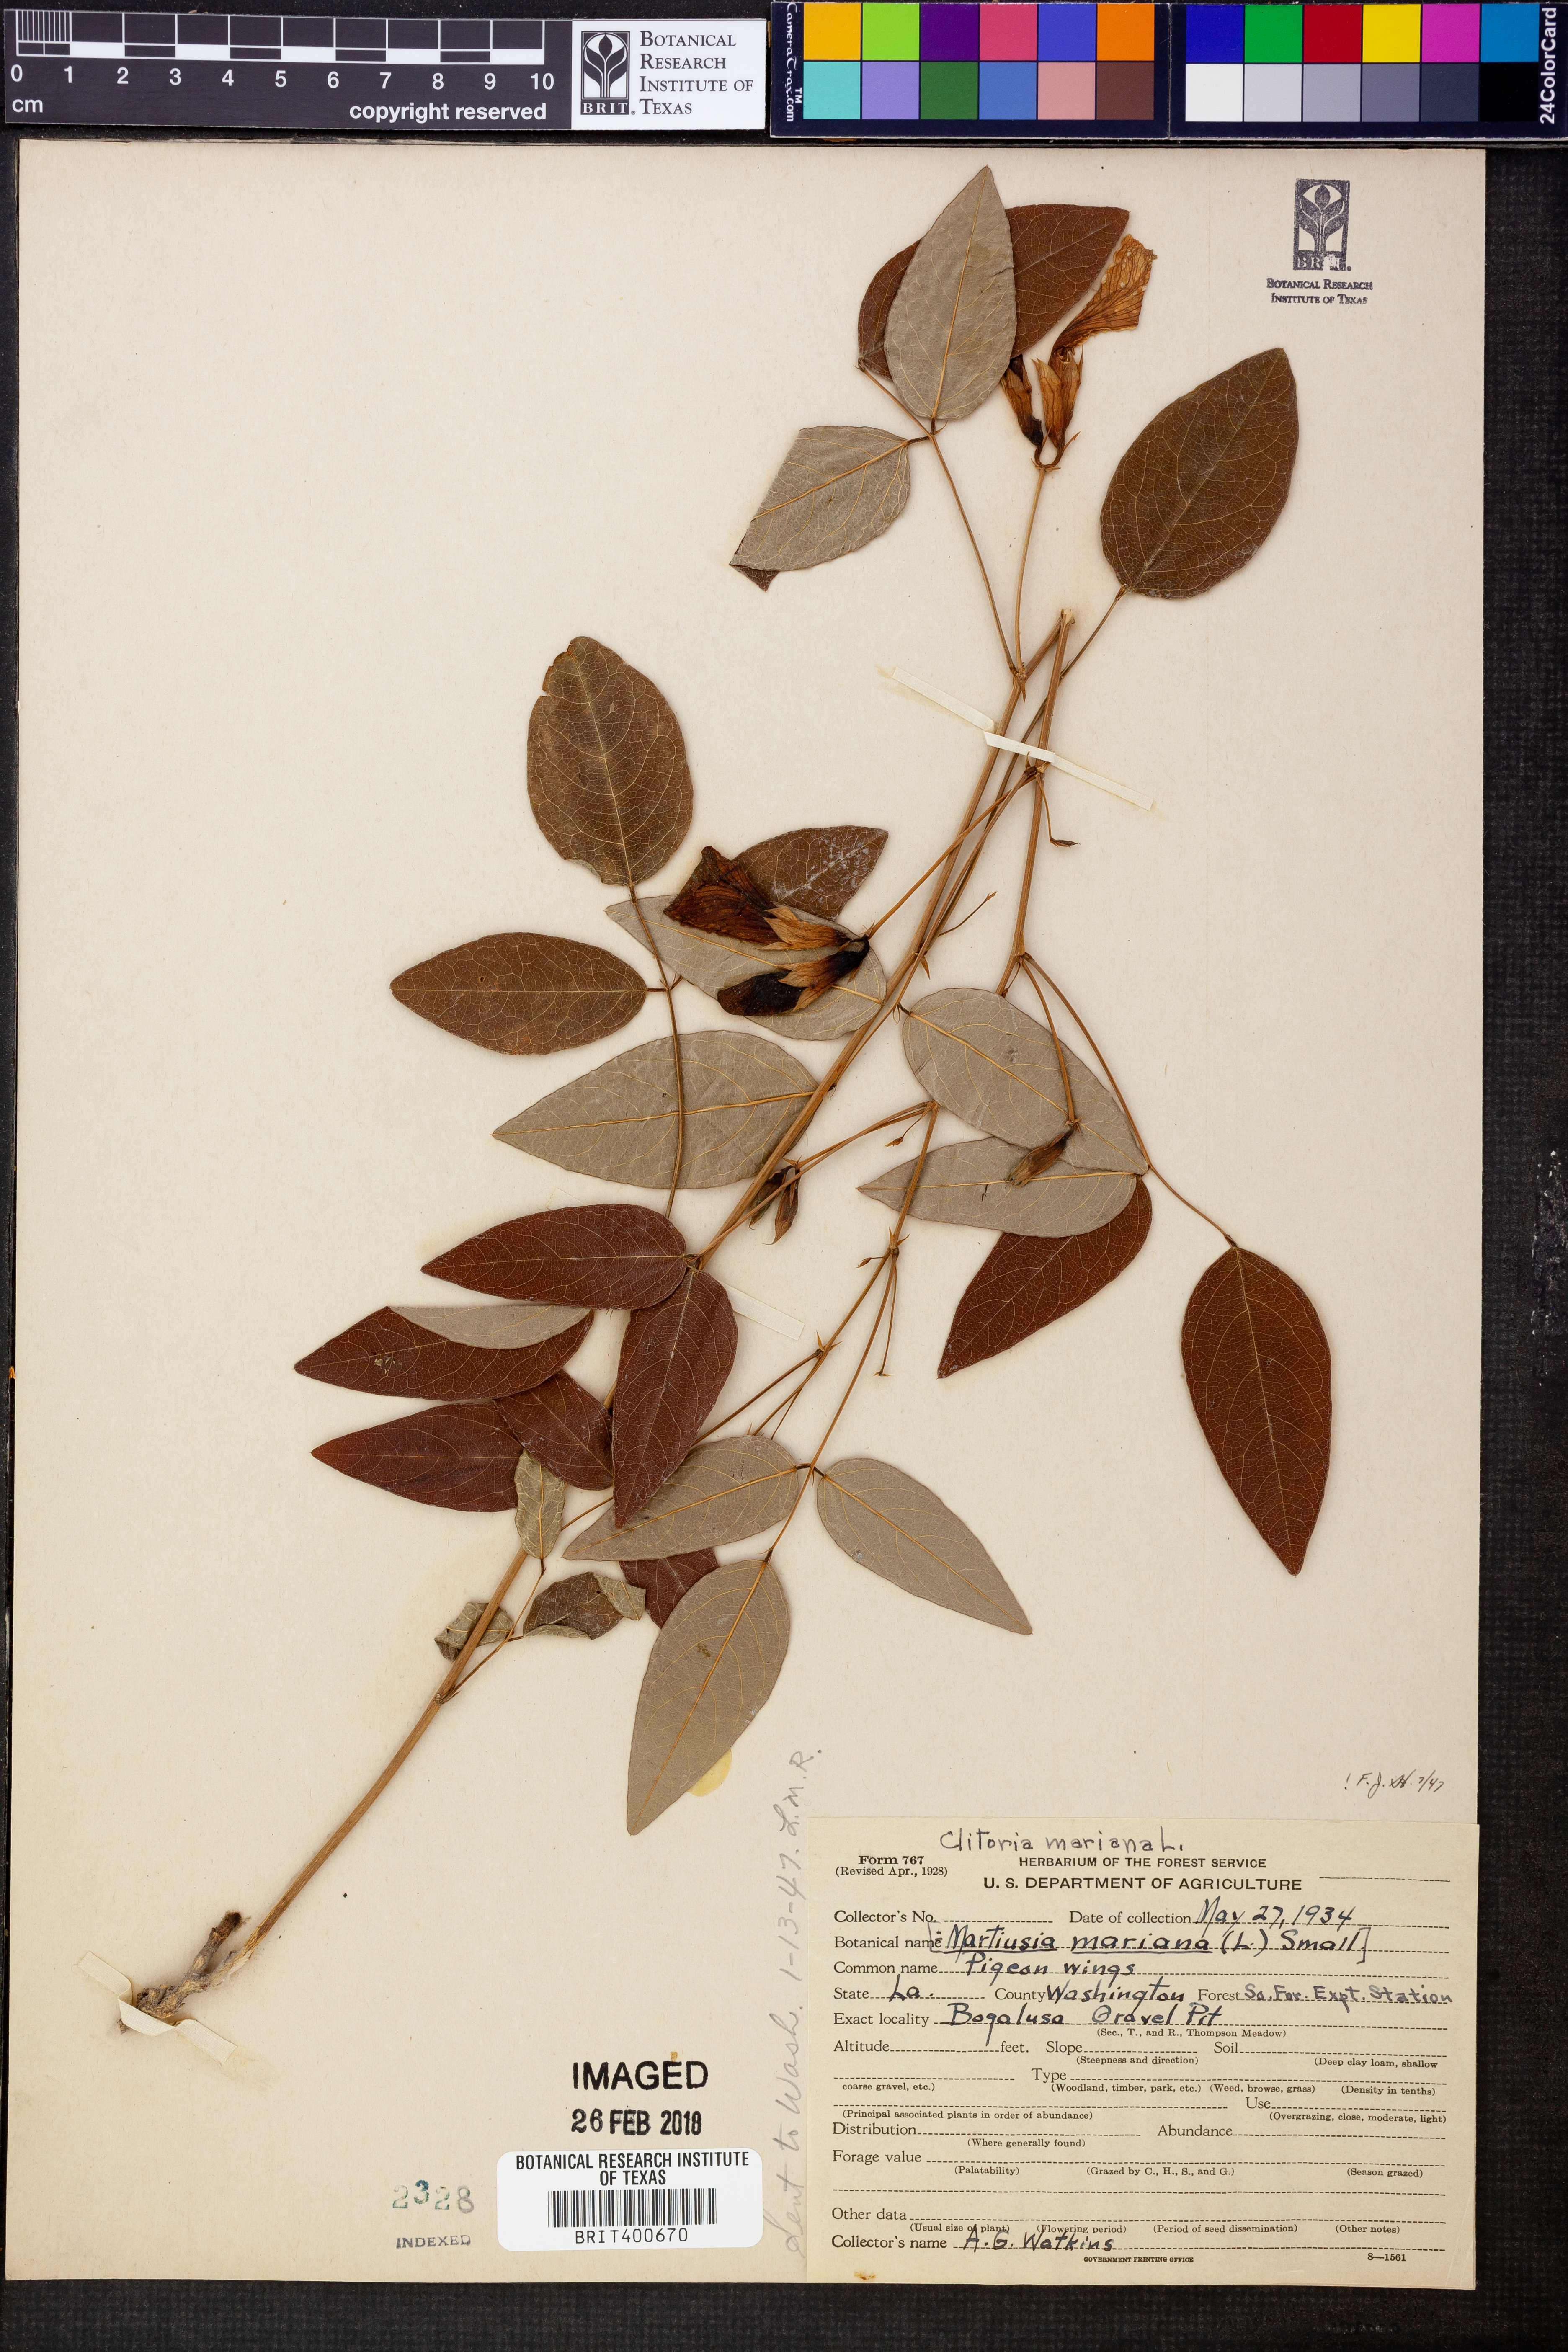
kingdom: Plantae
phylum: Tracheophyta
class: Magnoliopsida
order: Fabales
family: Fabaceae
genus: Clitoria
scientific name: Clitoria mariana
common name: Butterfly-pea
